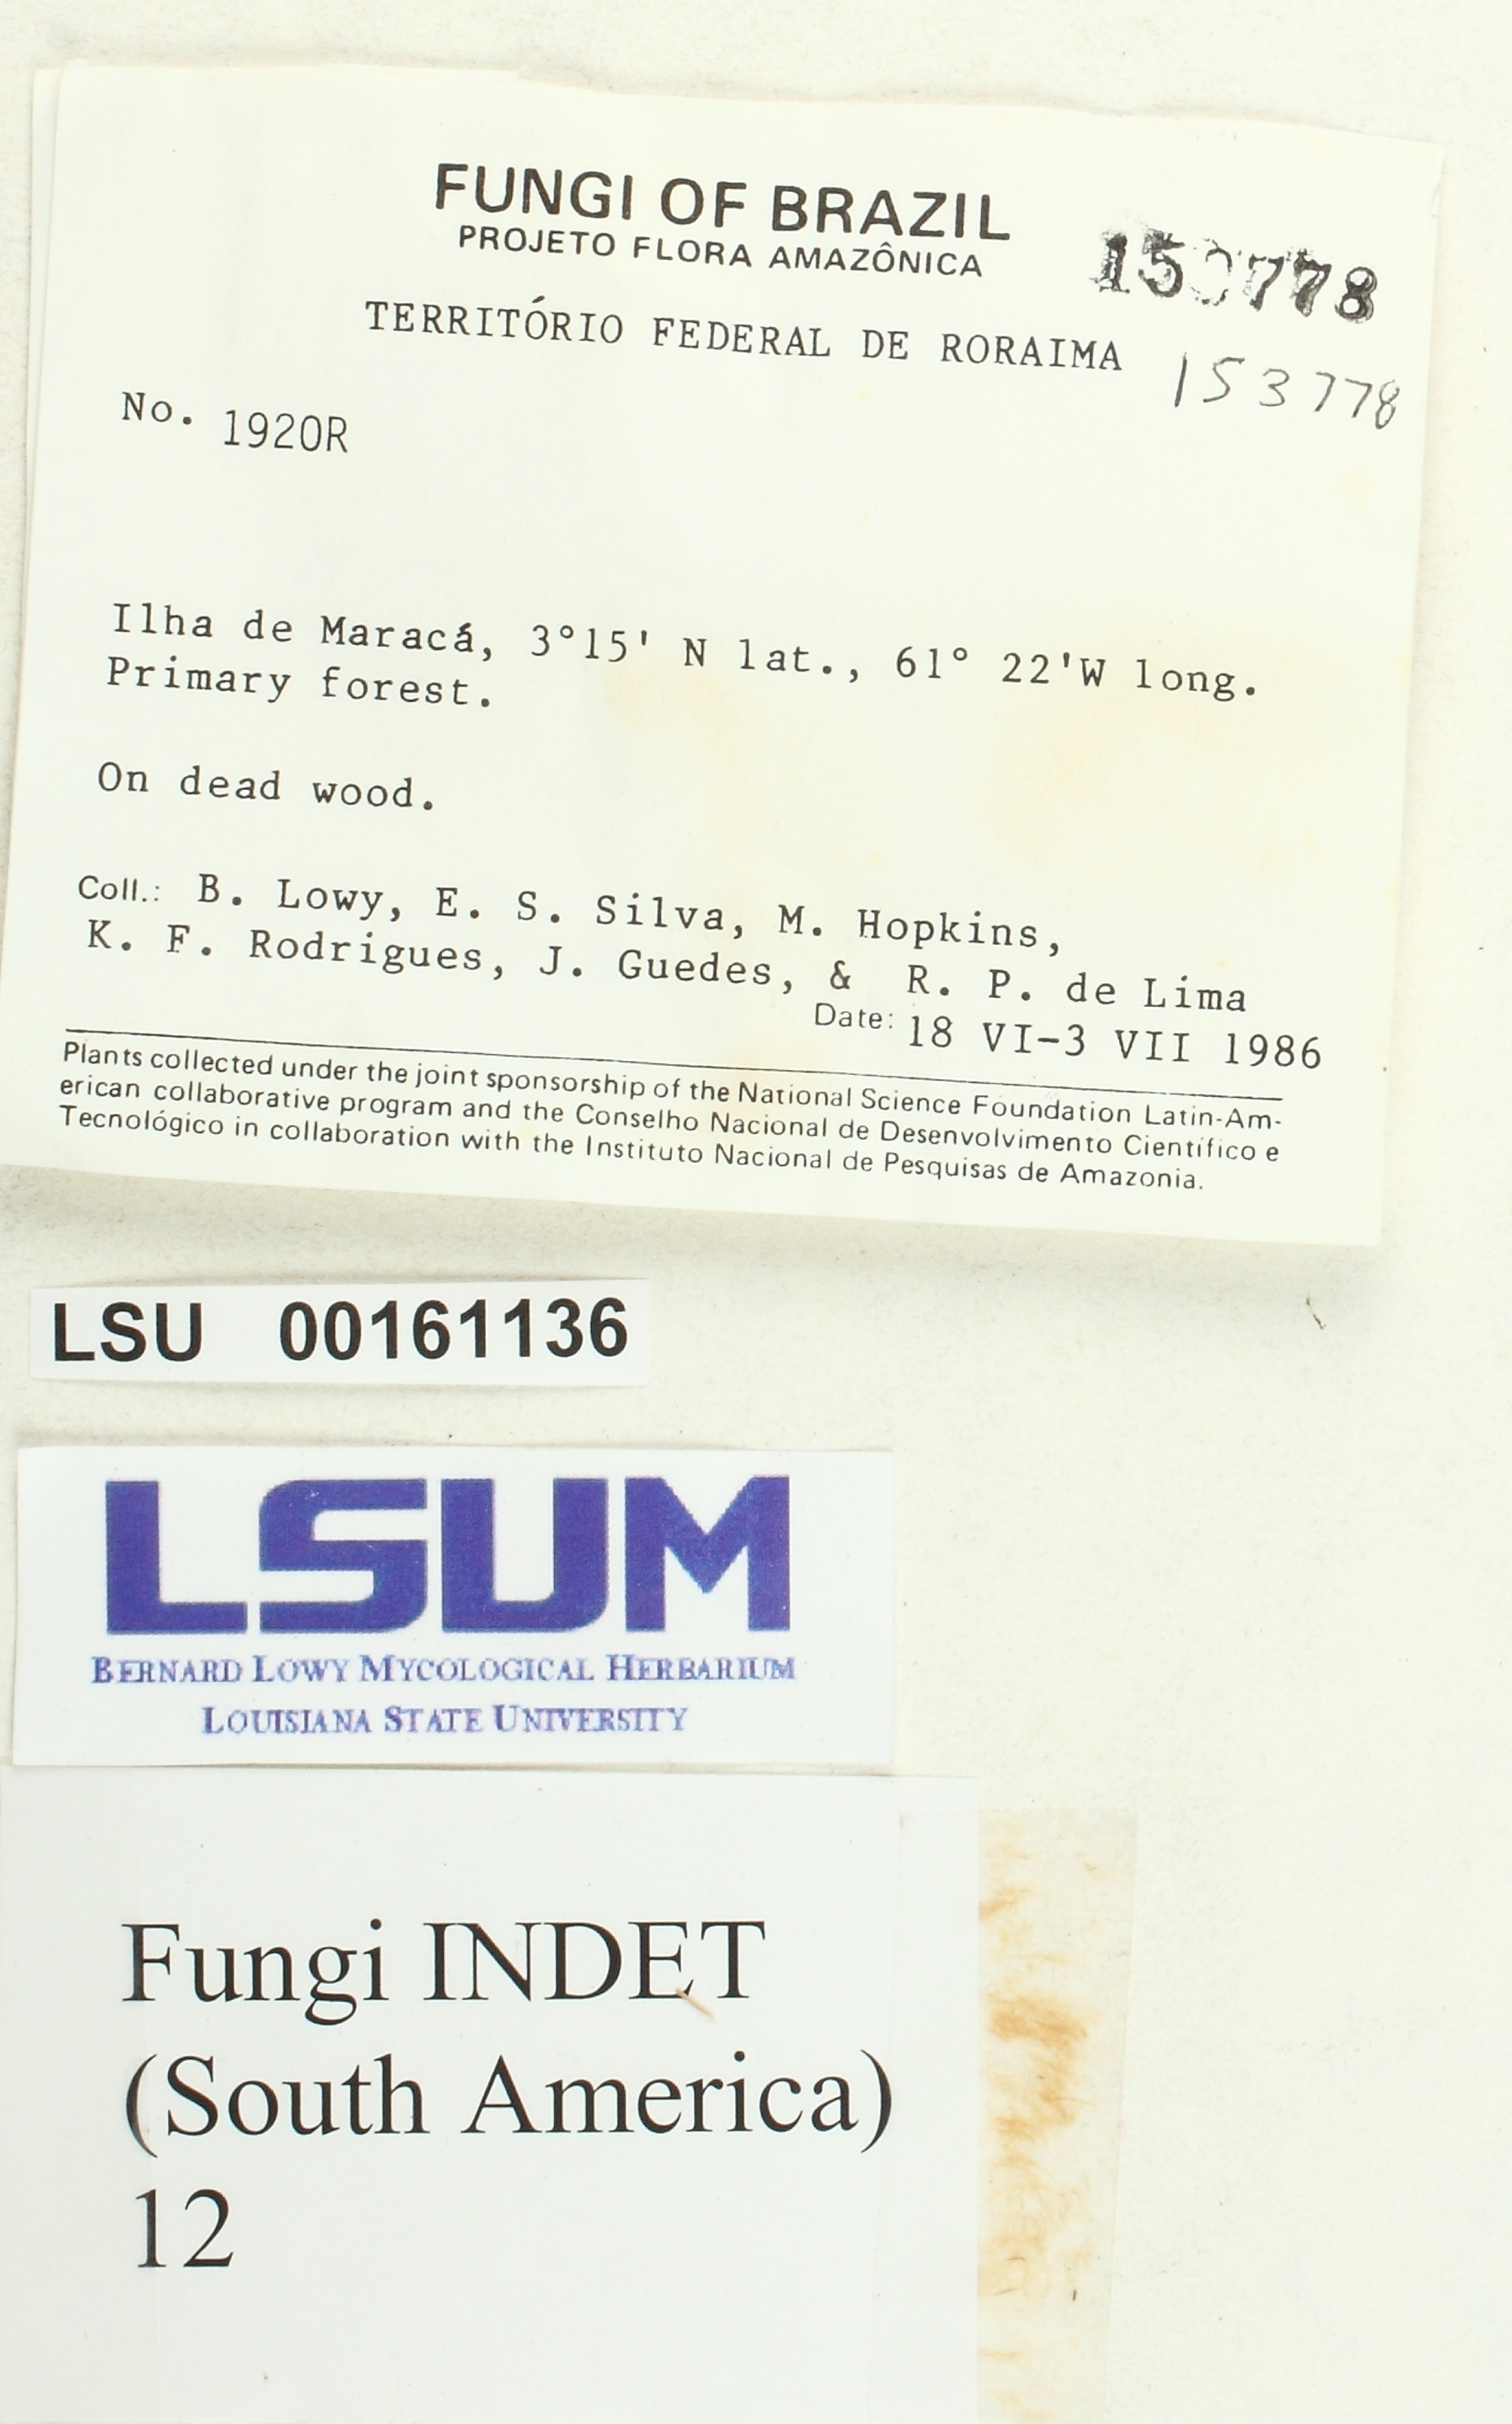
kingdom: Fungi
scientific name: Fungi
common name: Fungi
